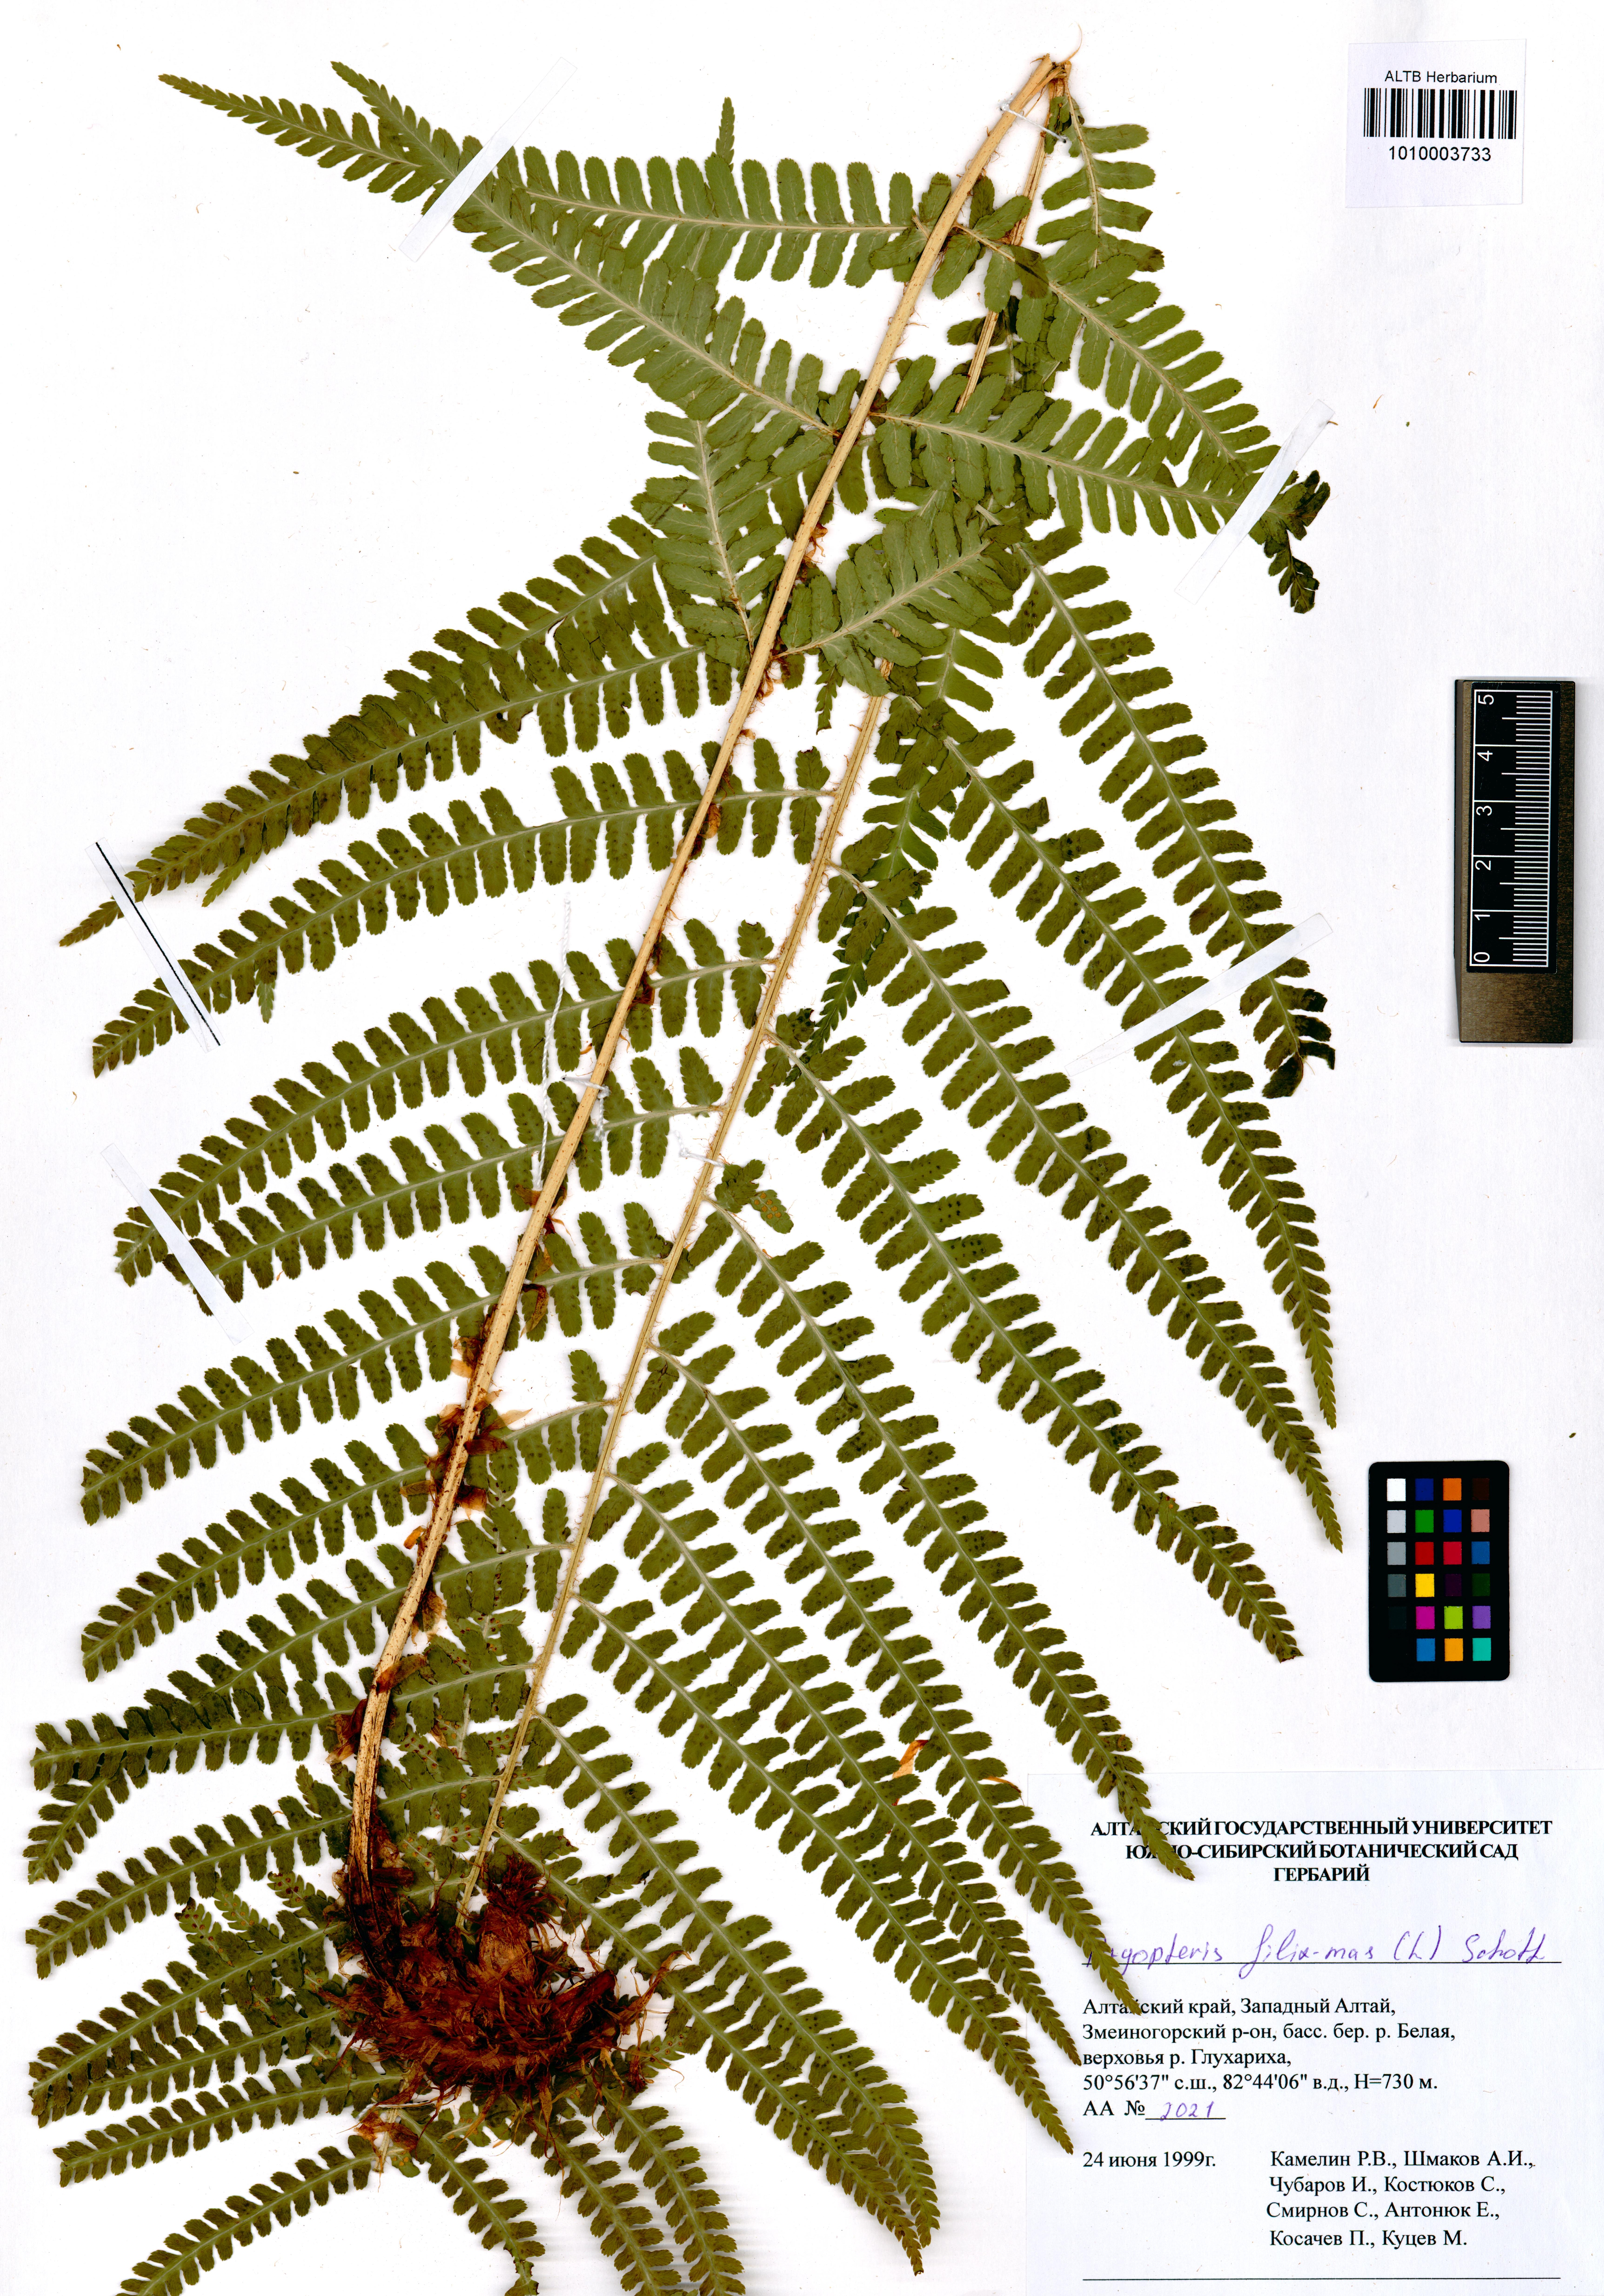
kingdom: Plantae
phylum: Tracheophyta
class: Polypodiopsida
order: Polypodiales
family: Dryopteridaceae
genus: Dryopteris
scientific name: Dryopteris filix-mas
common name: Male fern
